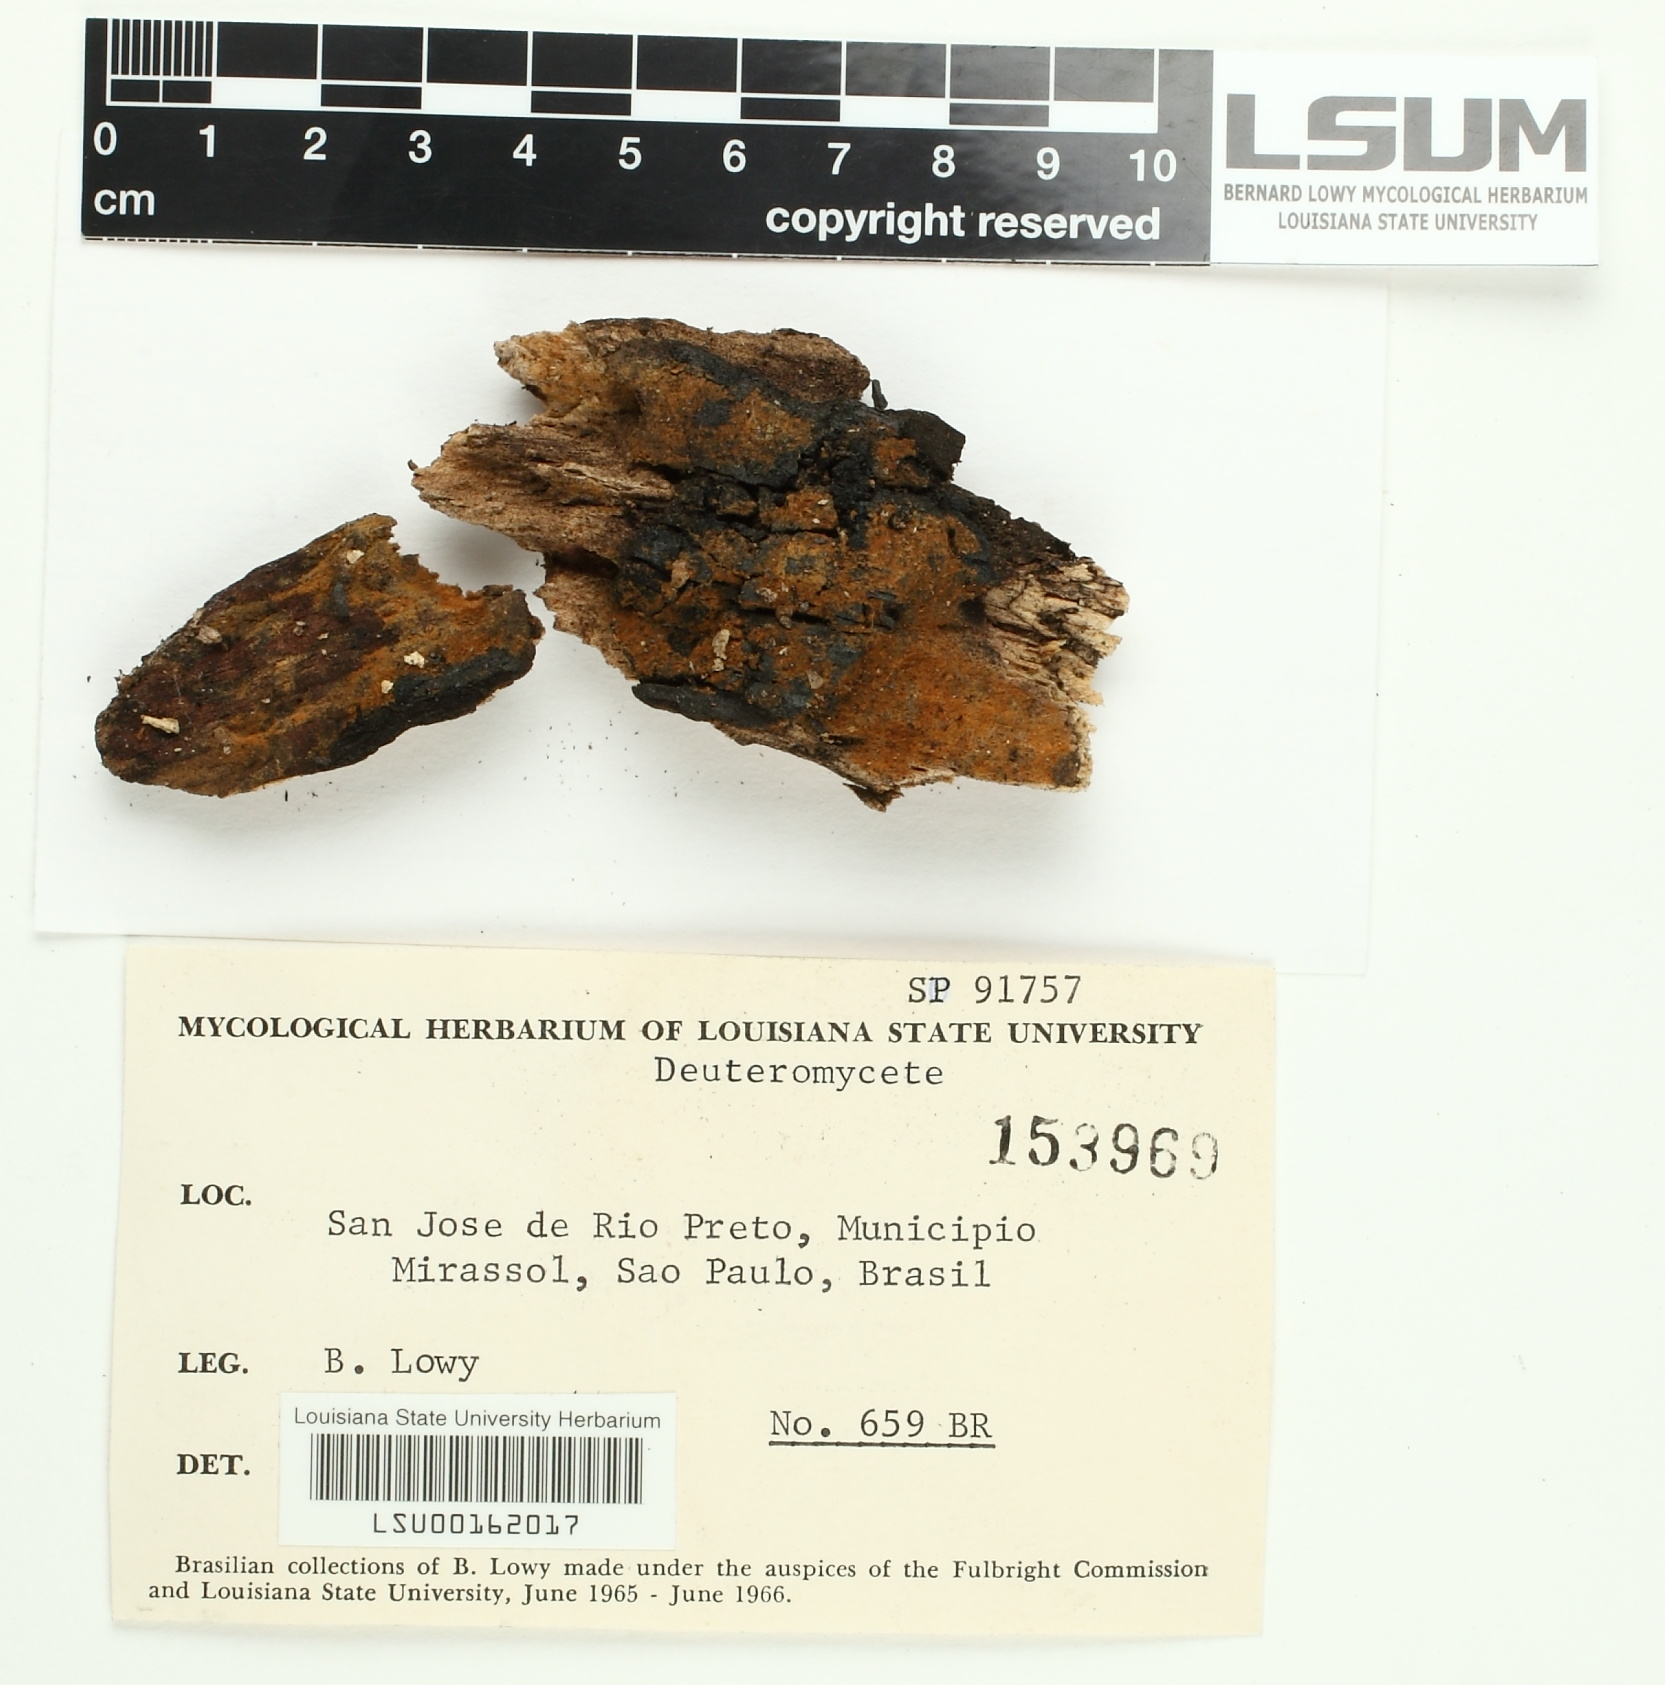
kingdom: Fungi
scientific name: Fungi
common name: Fungi
